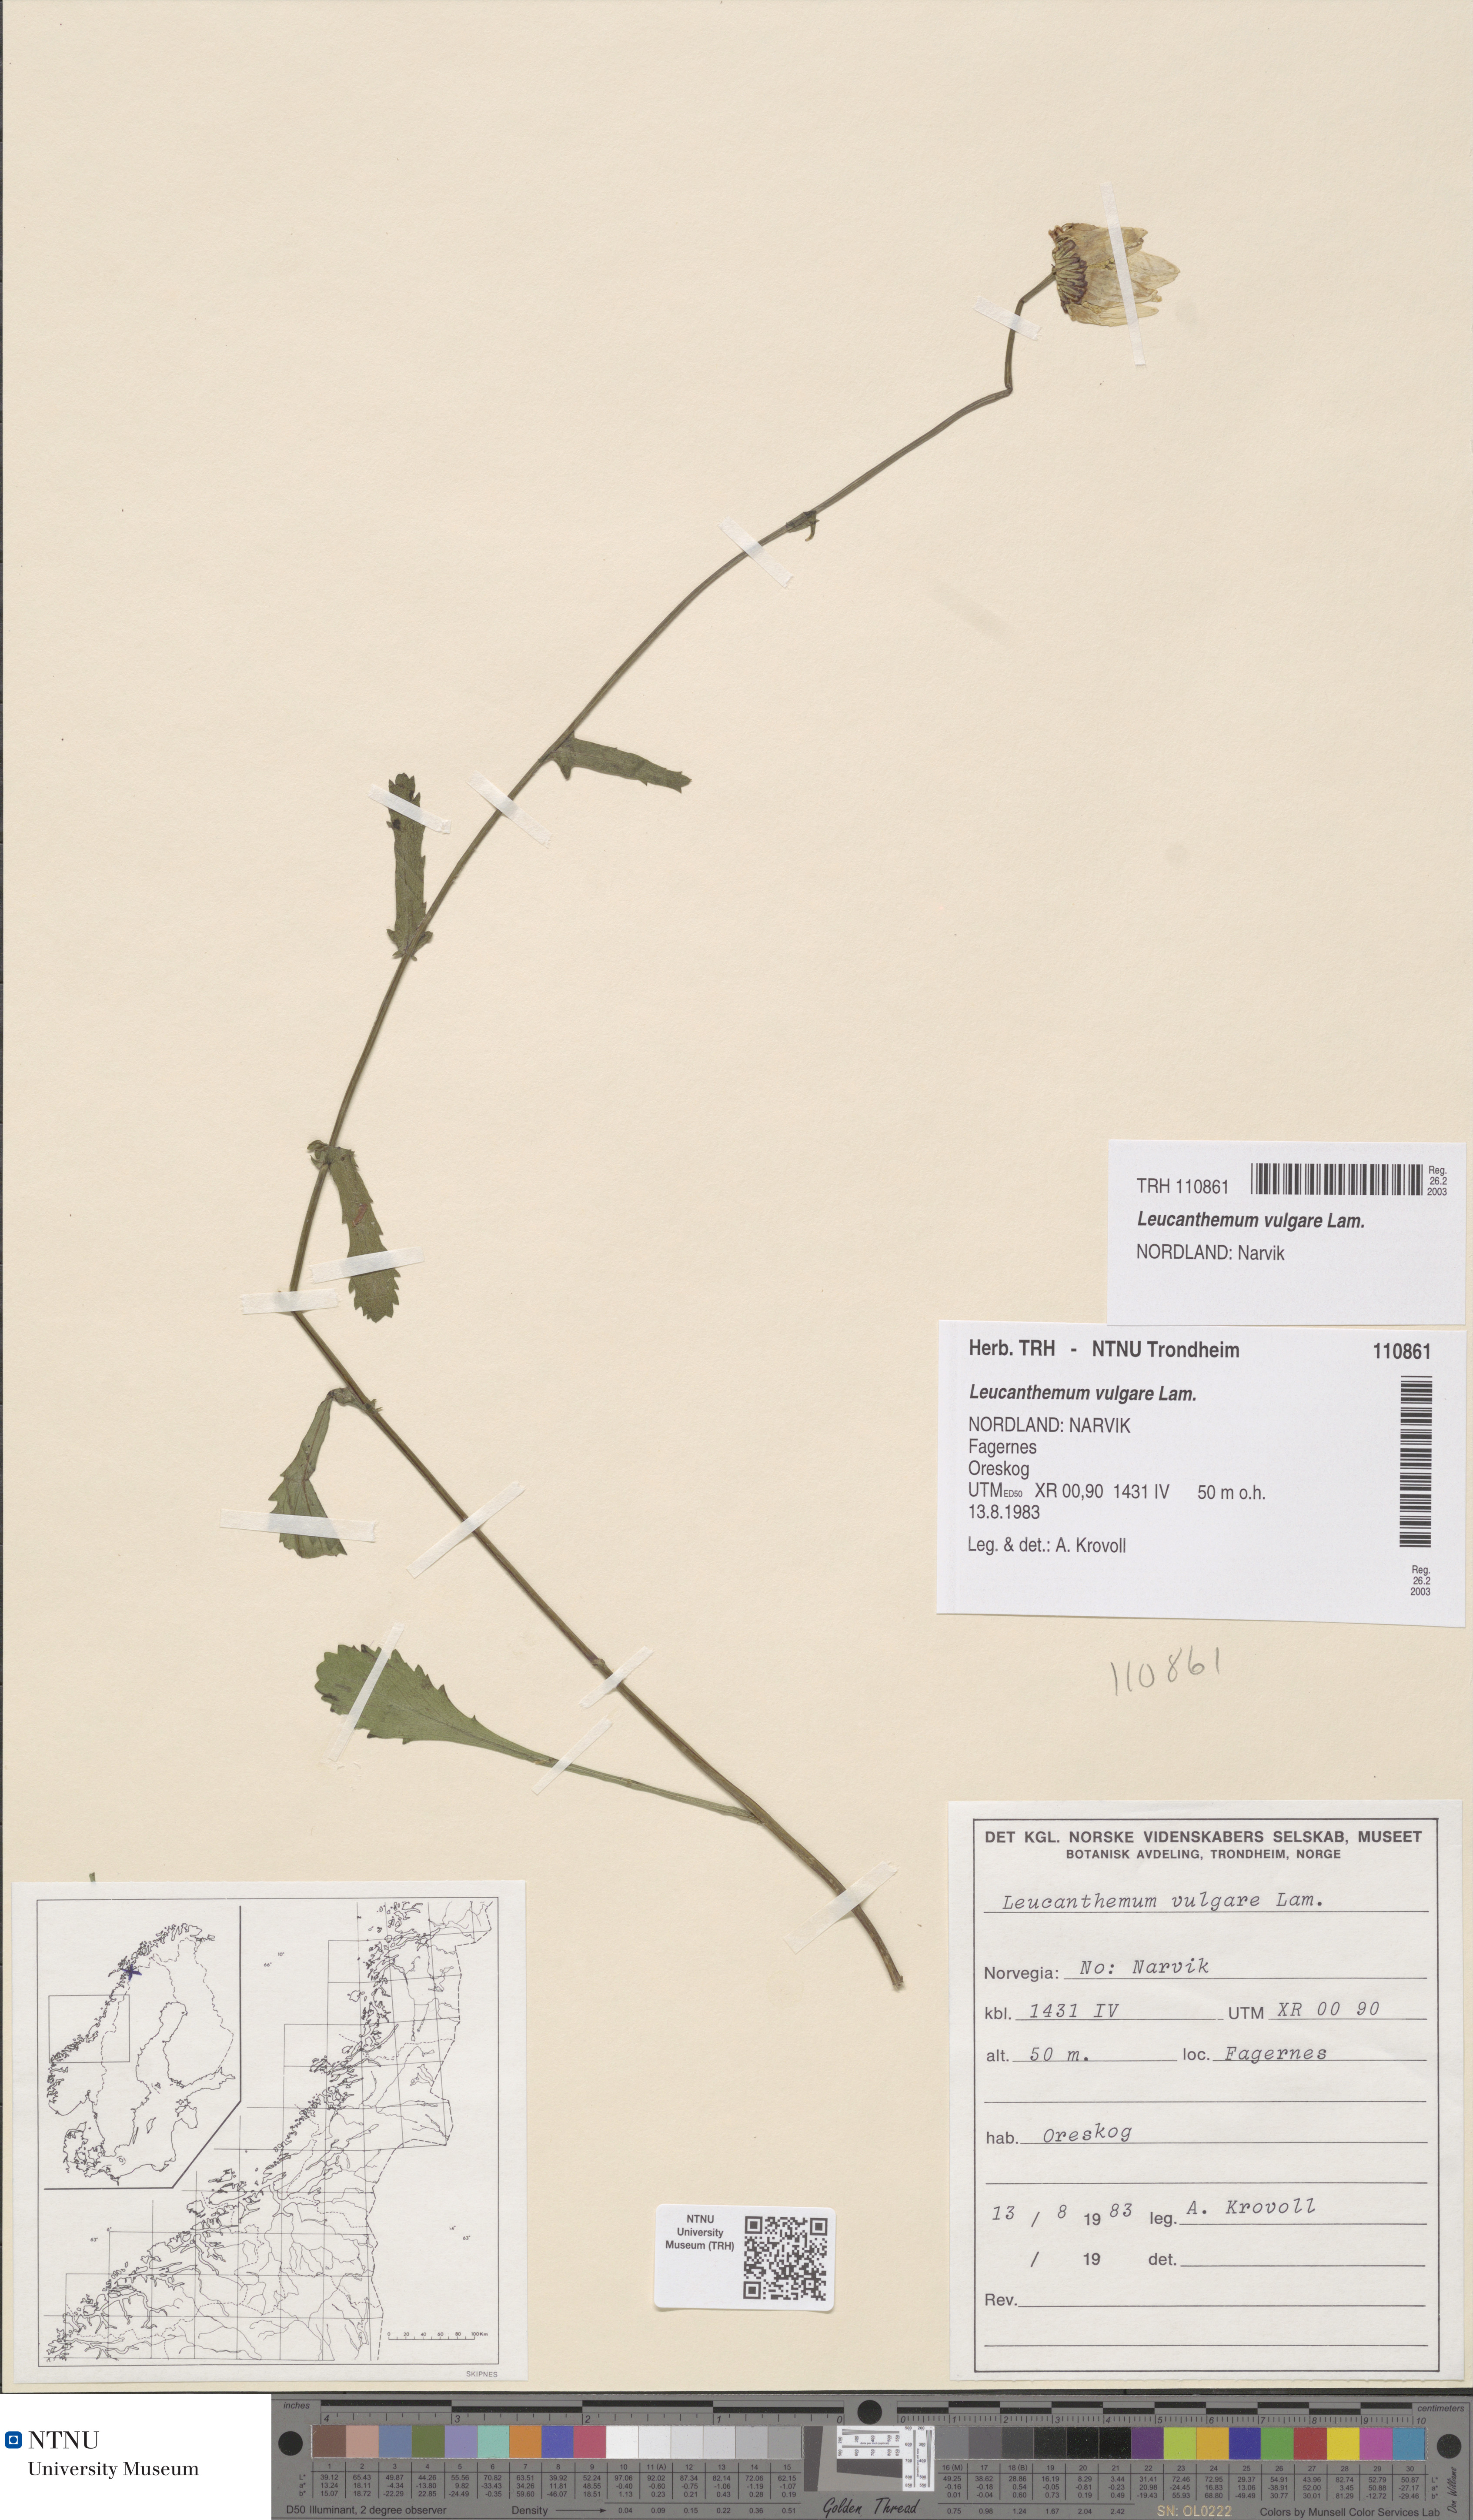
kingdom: Plantae
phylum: Tracheophyta
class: Magnoliopsida
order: Asterales
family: Asteraceae
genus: Leucanthemum
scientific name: Leucanthemum vulgare
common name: Oxeye daisy
